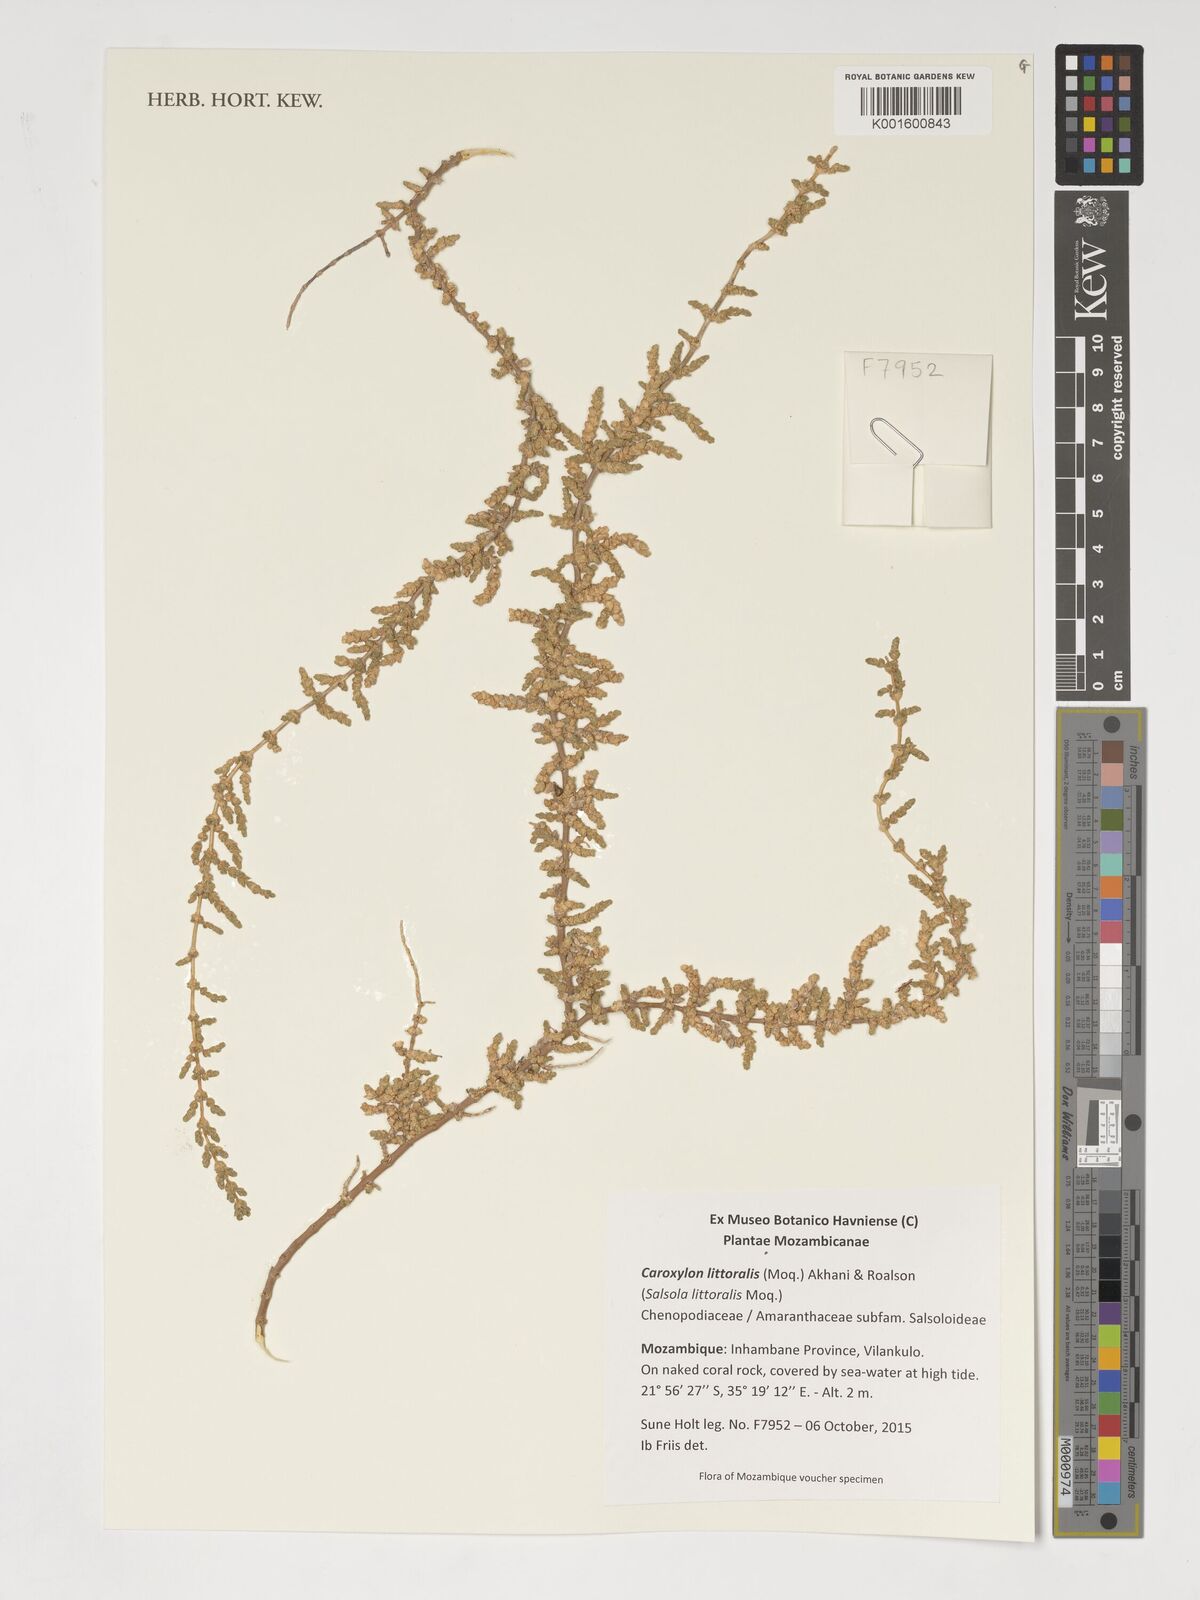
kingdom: Plantae
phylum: Tracheophyta
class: Magnoliopsida
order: Caryophyllales
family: Amaranthaceae
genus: Caroxylon
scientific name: Caroxylon littoralis
